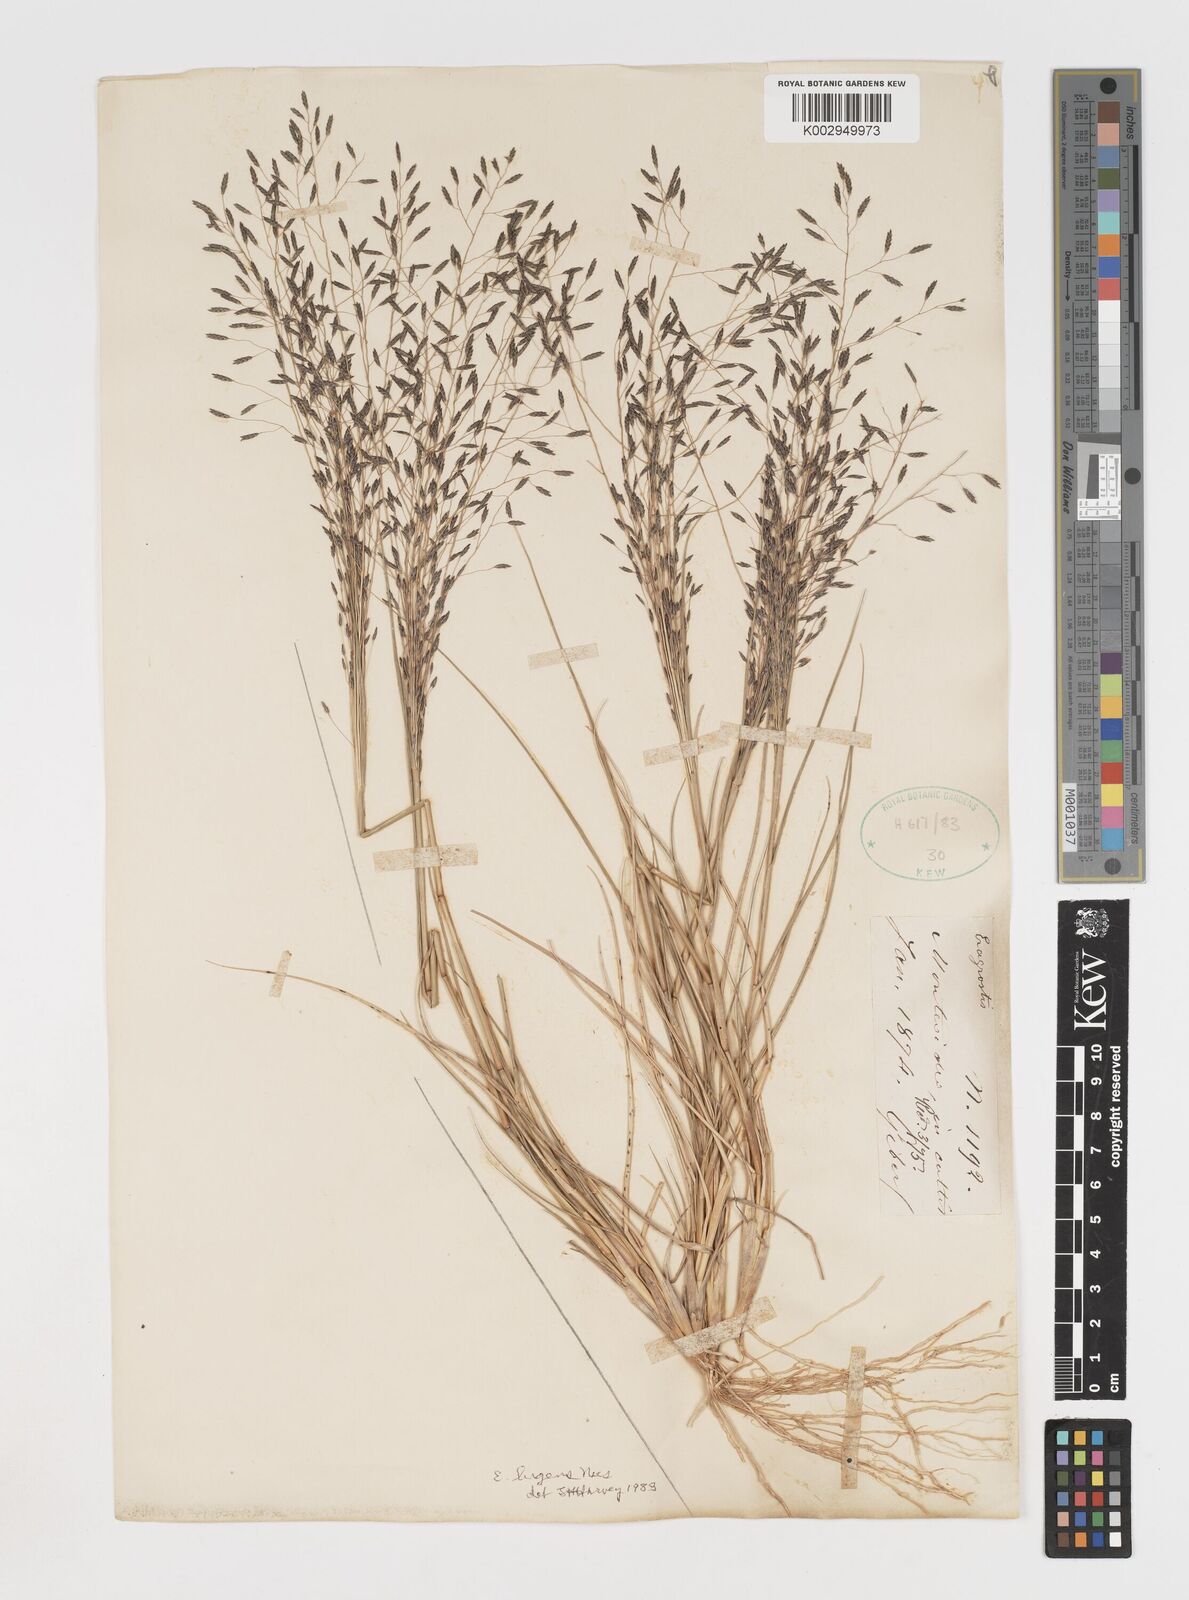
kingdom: Plantae
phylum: Tracheophyta
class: Liliopsida
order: Poales
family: Poaceae
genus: Eragrostis
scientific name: Eragrostis
